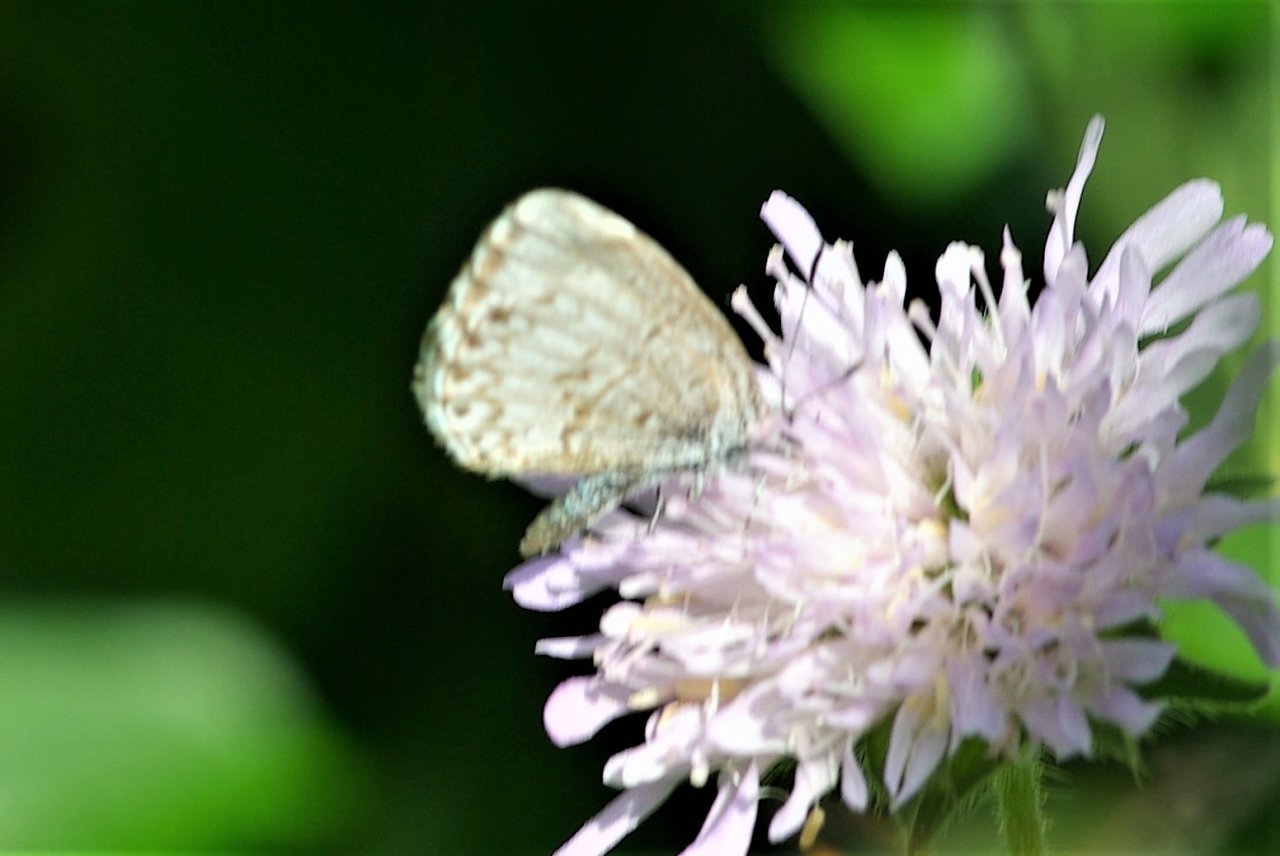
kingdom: Animalia
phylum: Arthropoda
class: Insecta
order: Lepidoptera
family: Lycaenidae
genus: Celastrina
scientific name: Celastrina lucia
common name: Northern Spring Azure
